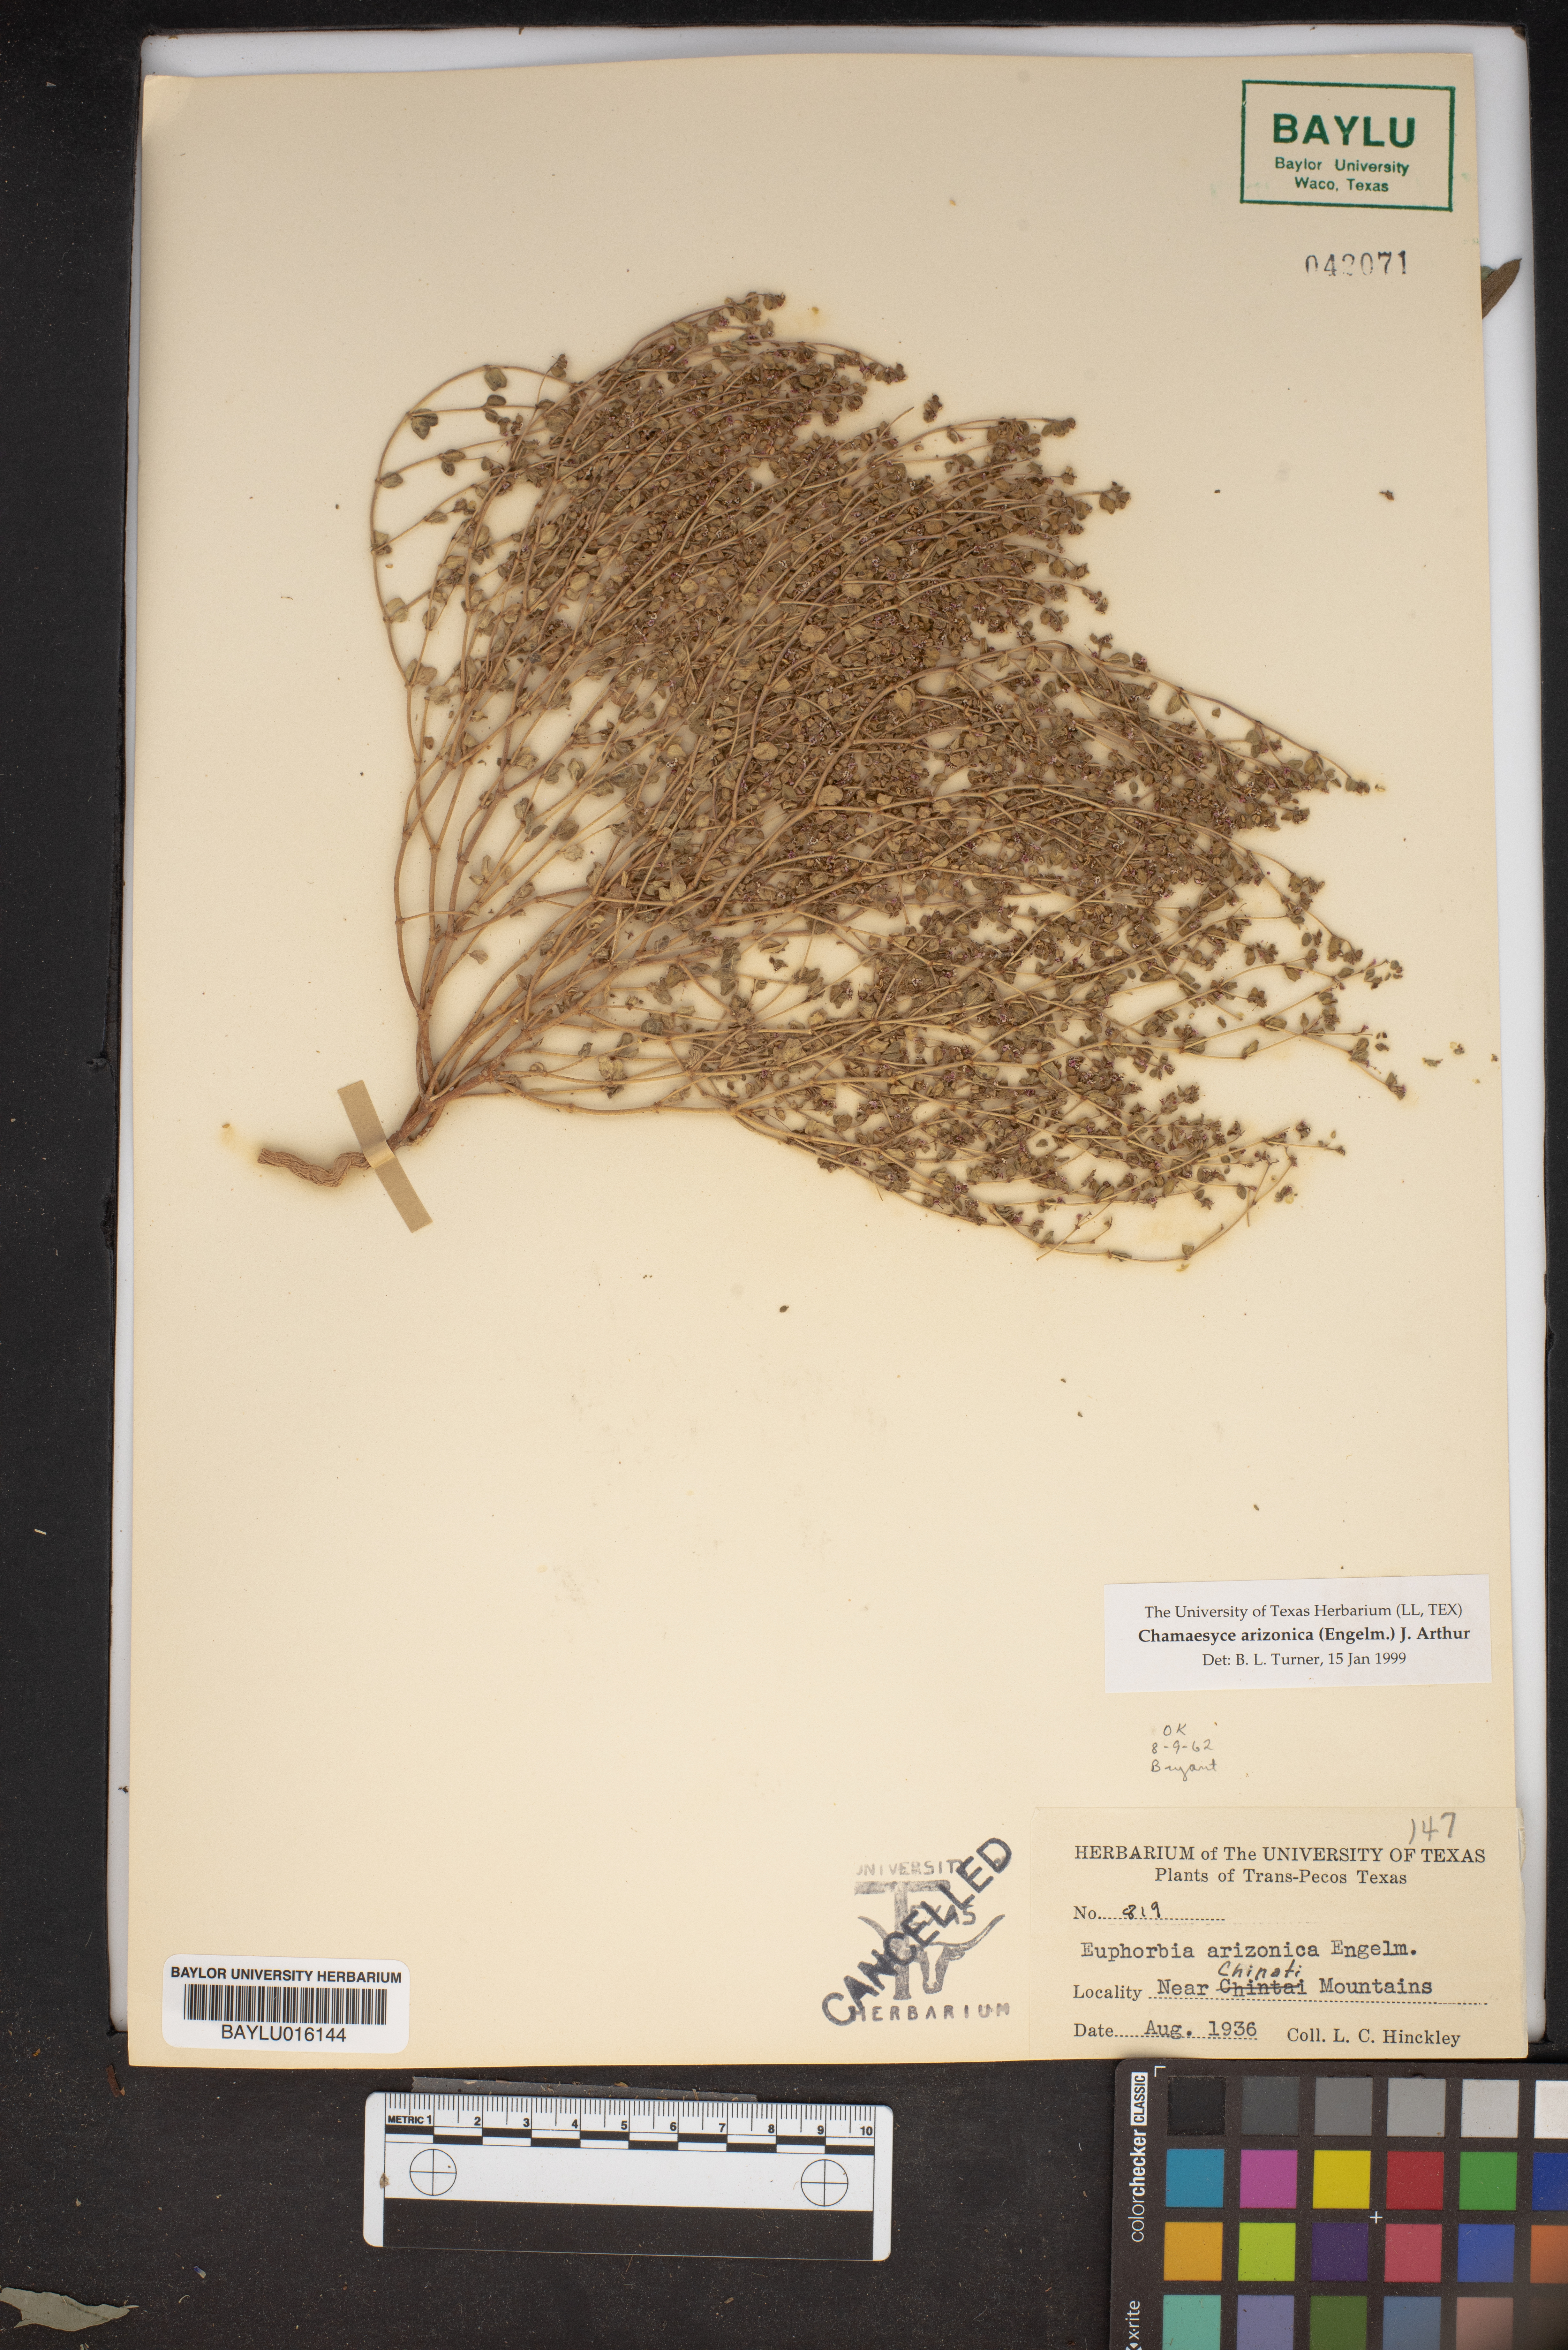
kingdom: Plantae
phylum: Tracheophyta
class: Magnoliopsida
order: Malpighiales
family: Euphorbiaceae
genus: Euphorbia
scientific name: Euphorbia arizonica
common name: Arizona spurge
